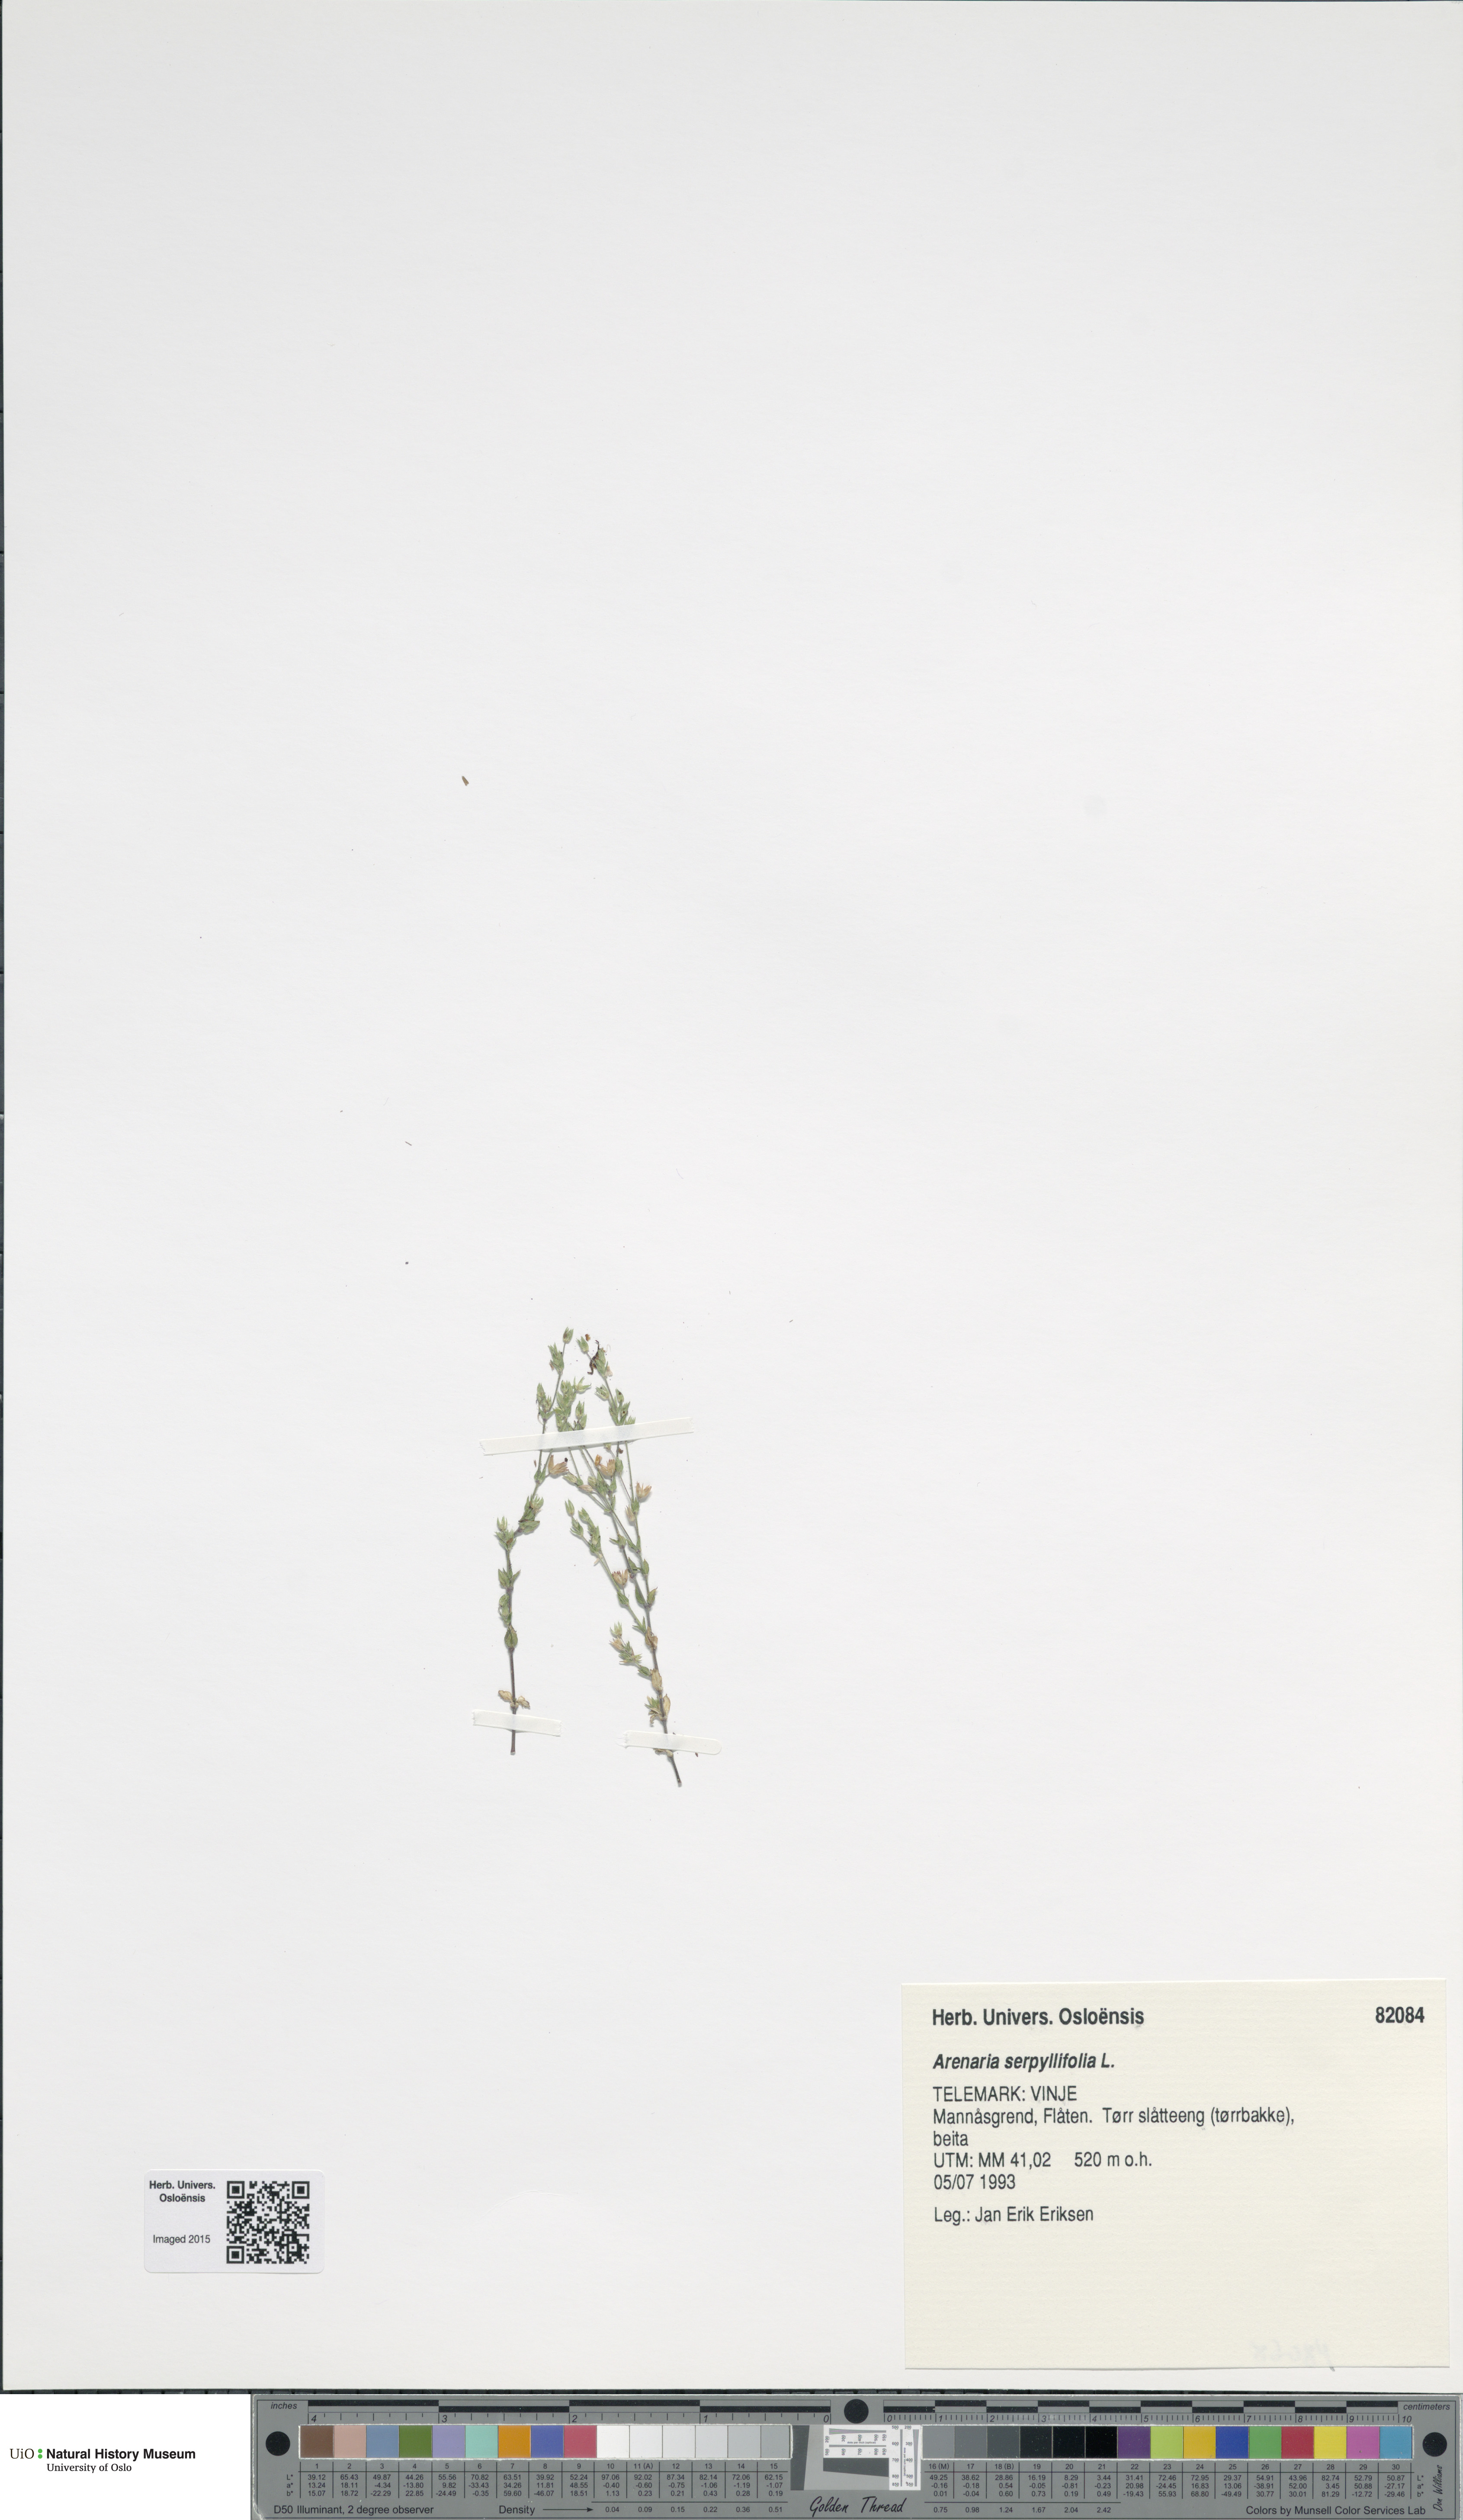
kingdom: Plantae
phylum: Tracheophyta
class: Magnoliopsida
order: Caryophyllales
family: Caryophyllaceae
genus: Arenaria
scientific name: Arenaria serpyllifolia
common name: Thyme-leaved sandwort
